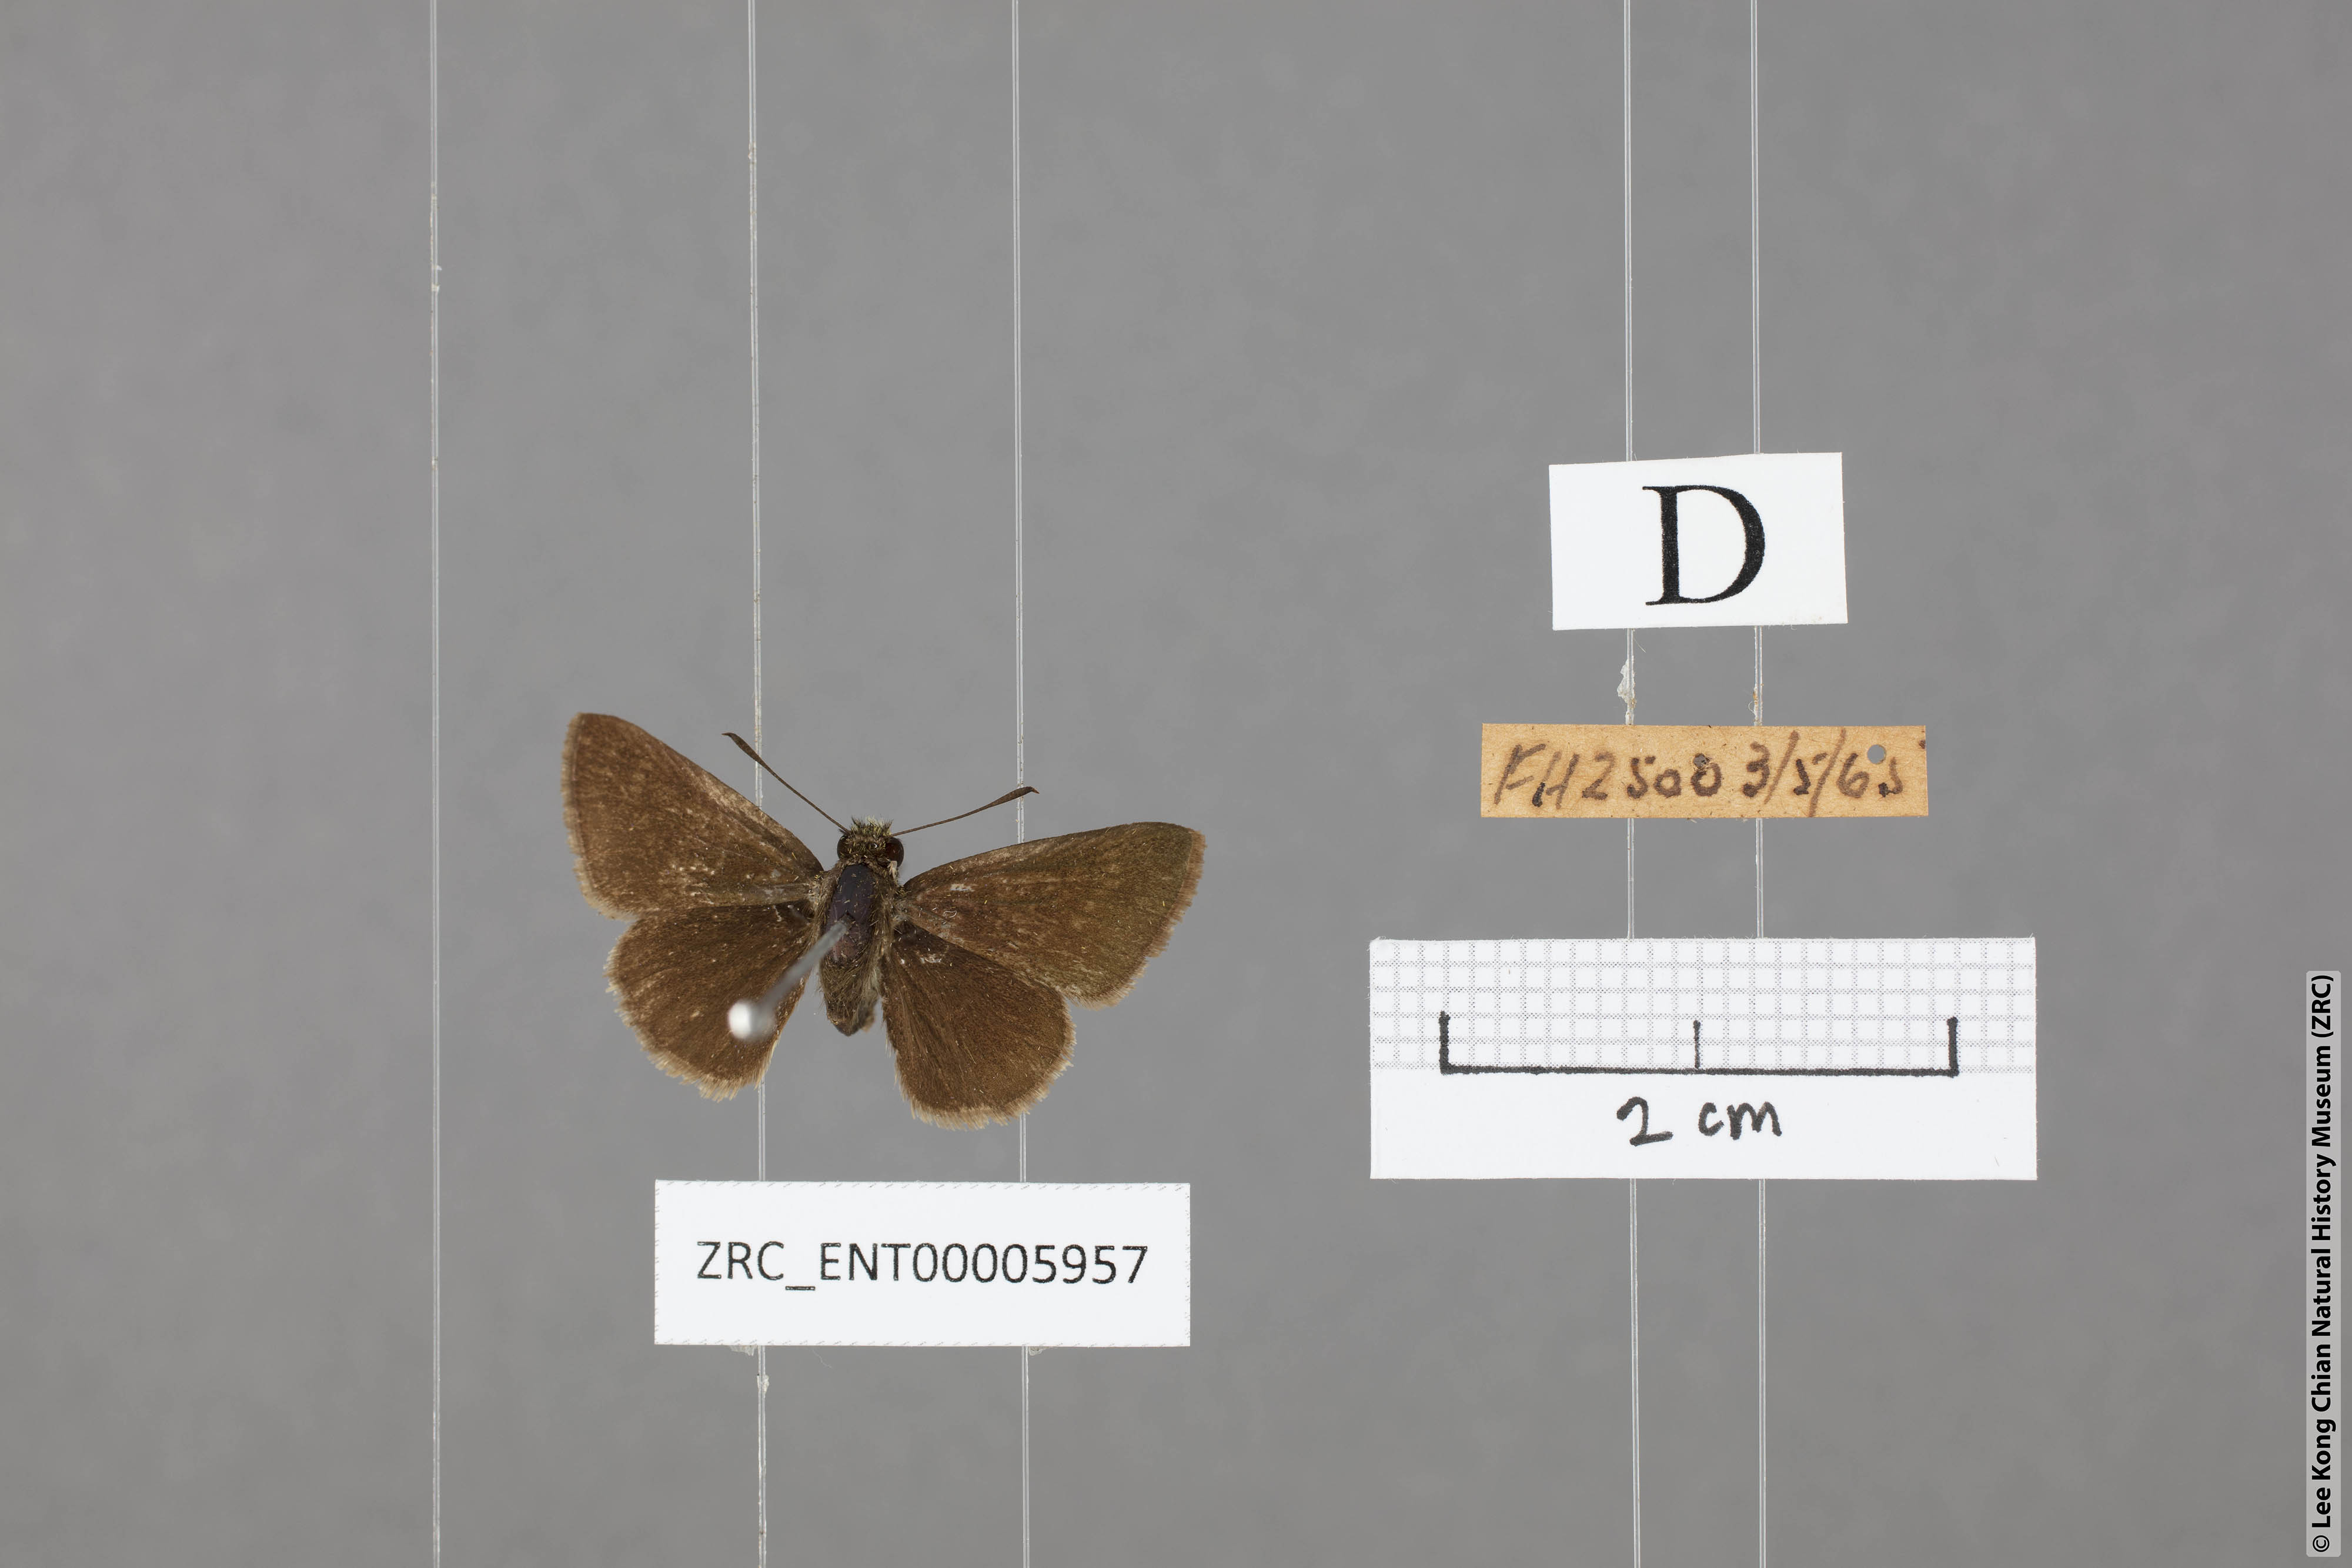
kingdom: Animalia
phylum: Arthropoda
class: Insecta
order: Lepidoptera
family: Hesperiidae
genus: Aeromachus
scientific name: Aeromachus jhora
